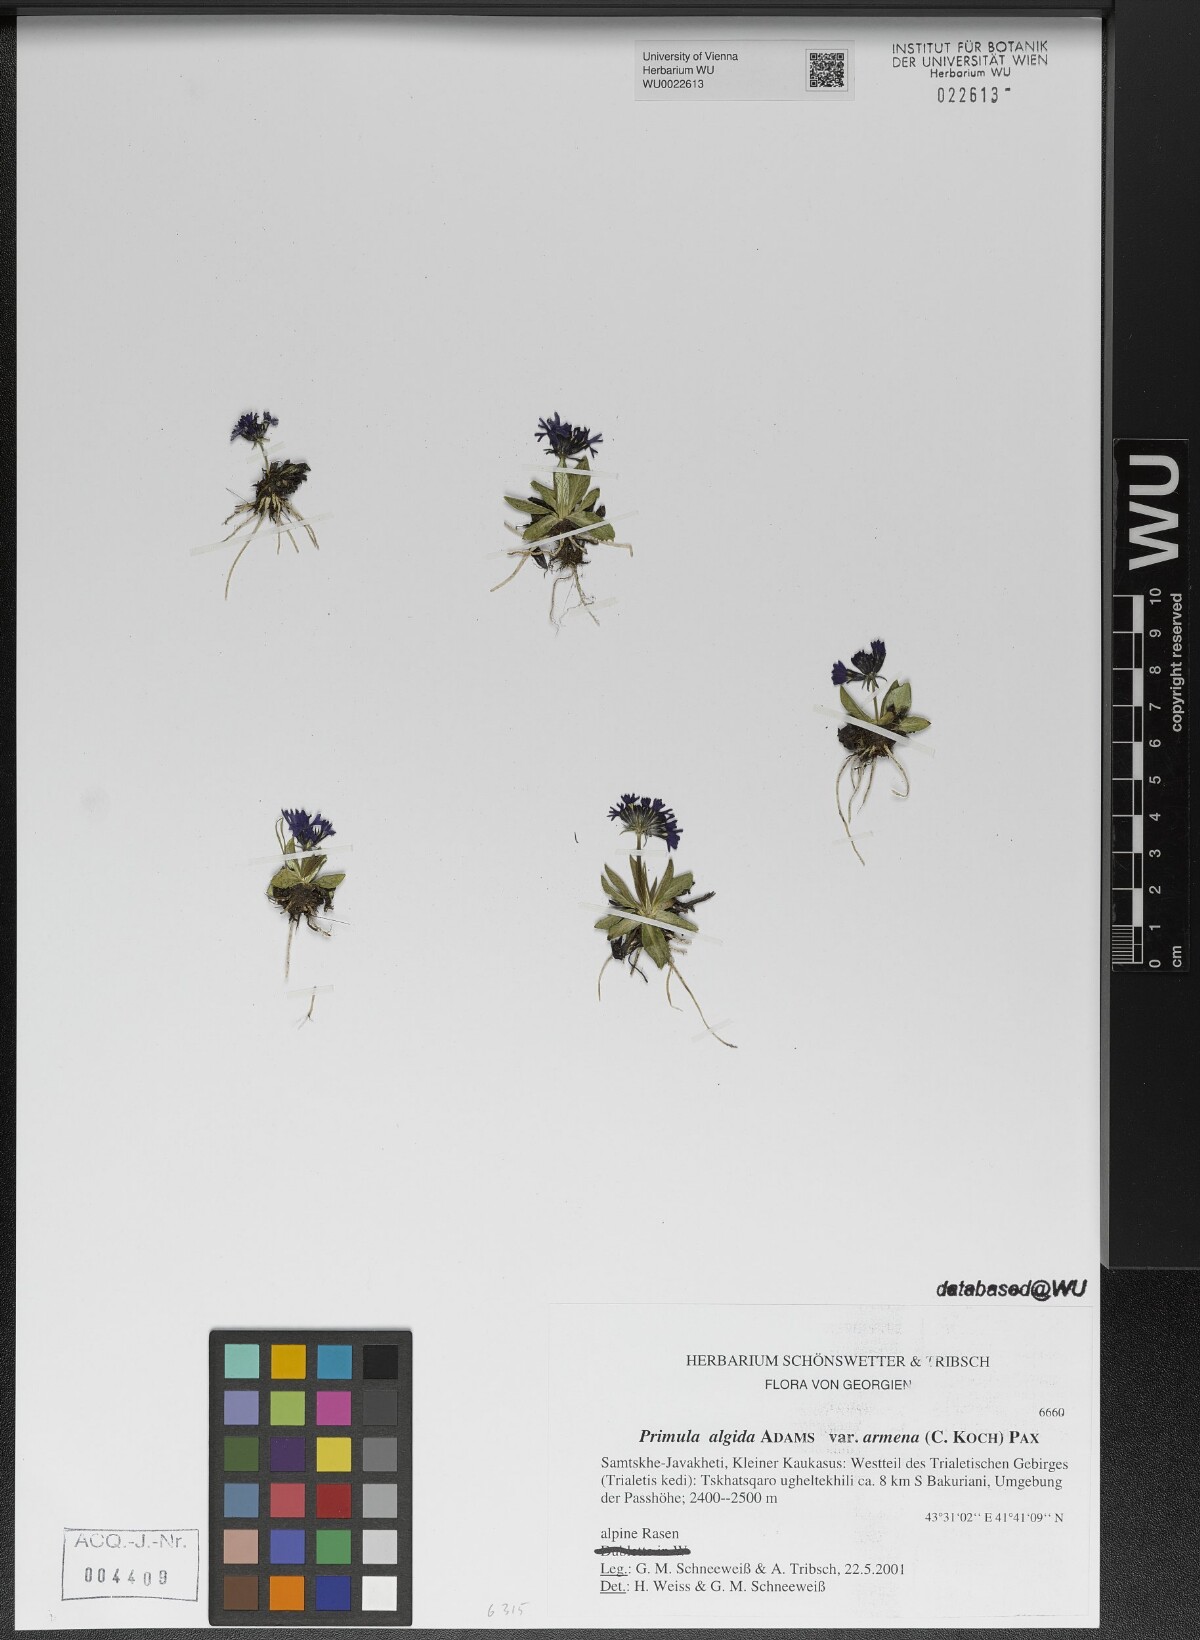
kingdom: Plantae
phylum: Tracheophyta
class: Magnoliopsida
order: Ericales
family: Primulaceae
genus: Primula
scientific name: Primula algida
